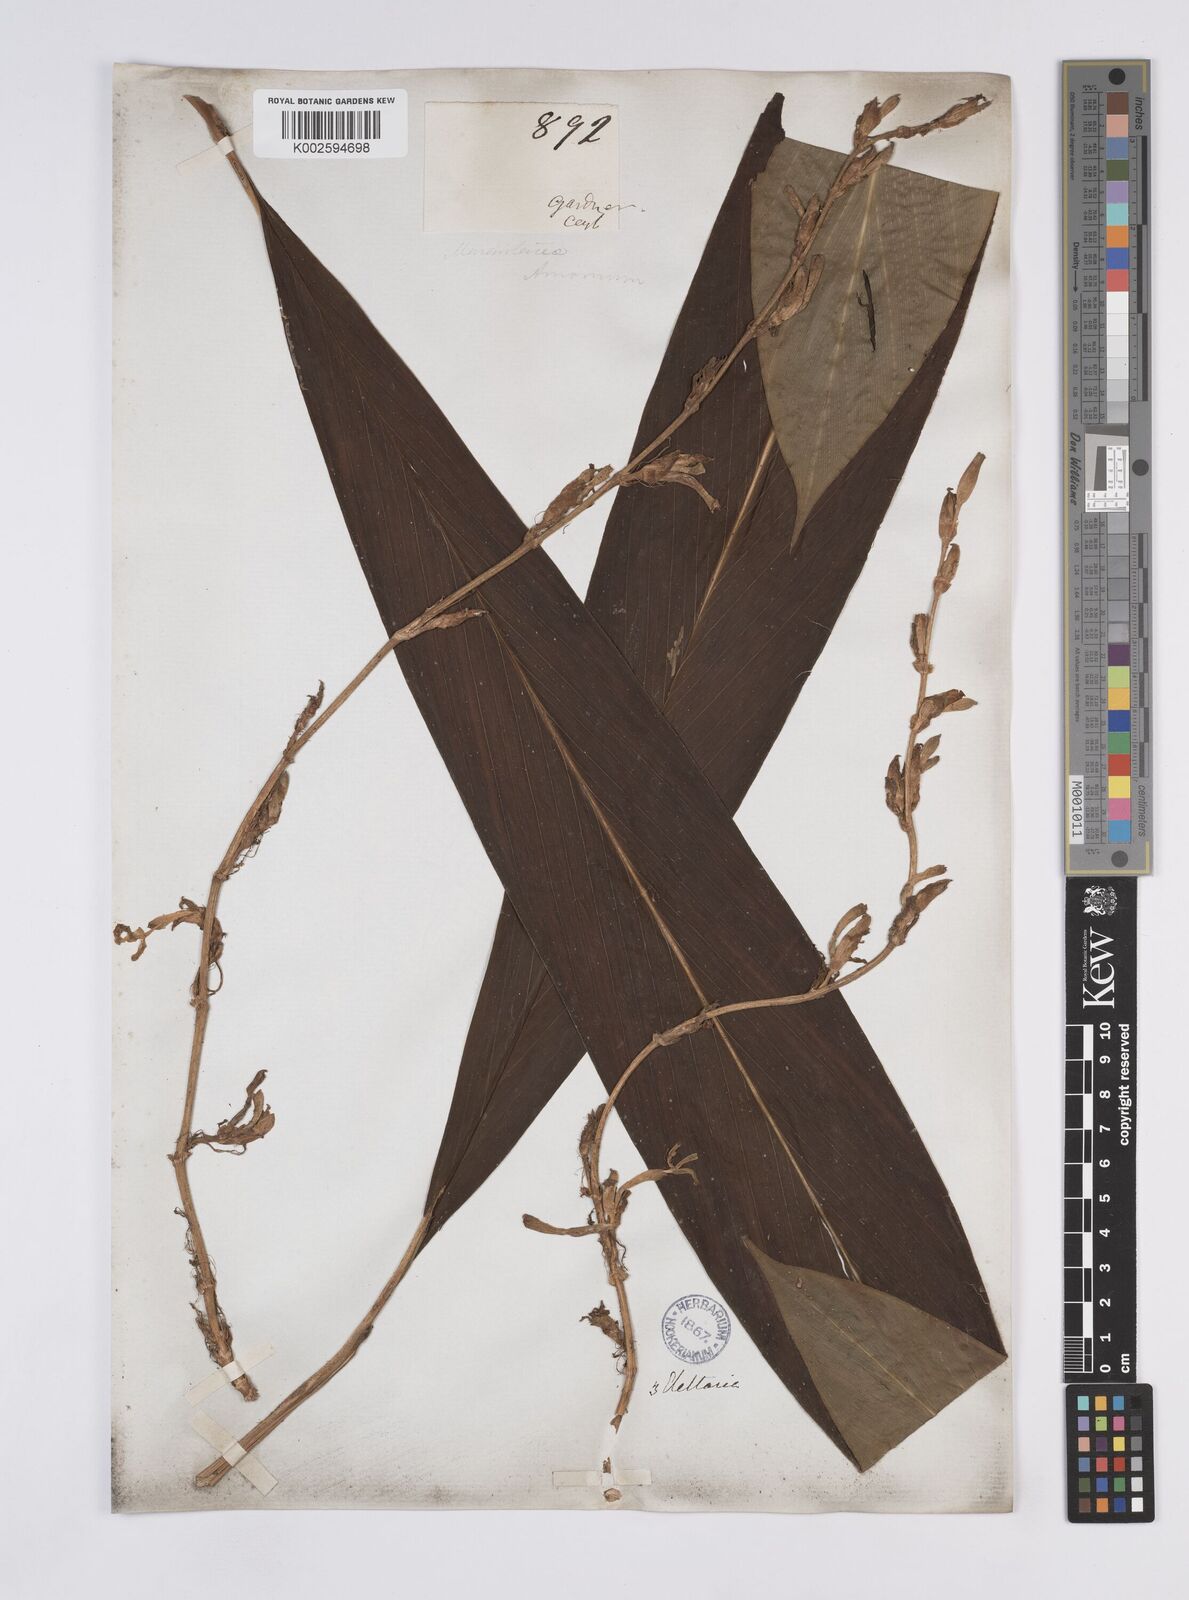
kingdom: Plantae
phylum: Tracheophyta
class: Liliopsida
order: Zingiberales
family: Zingiberaceae
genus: Elettaria
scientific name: Elettaria ensal
